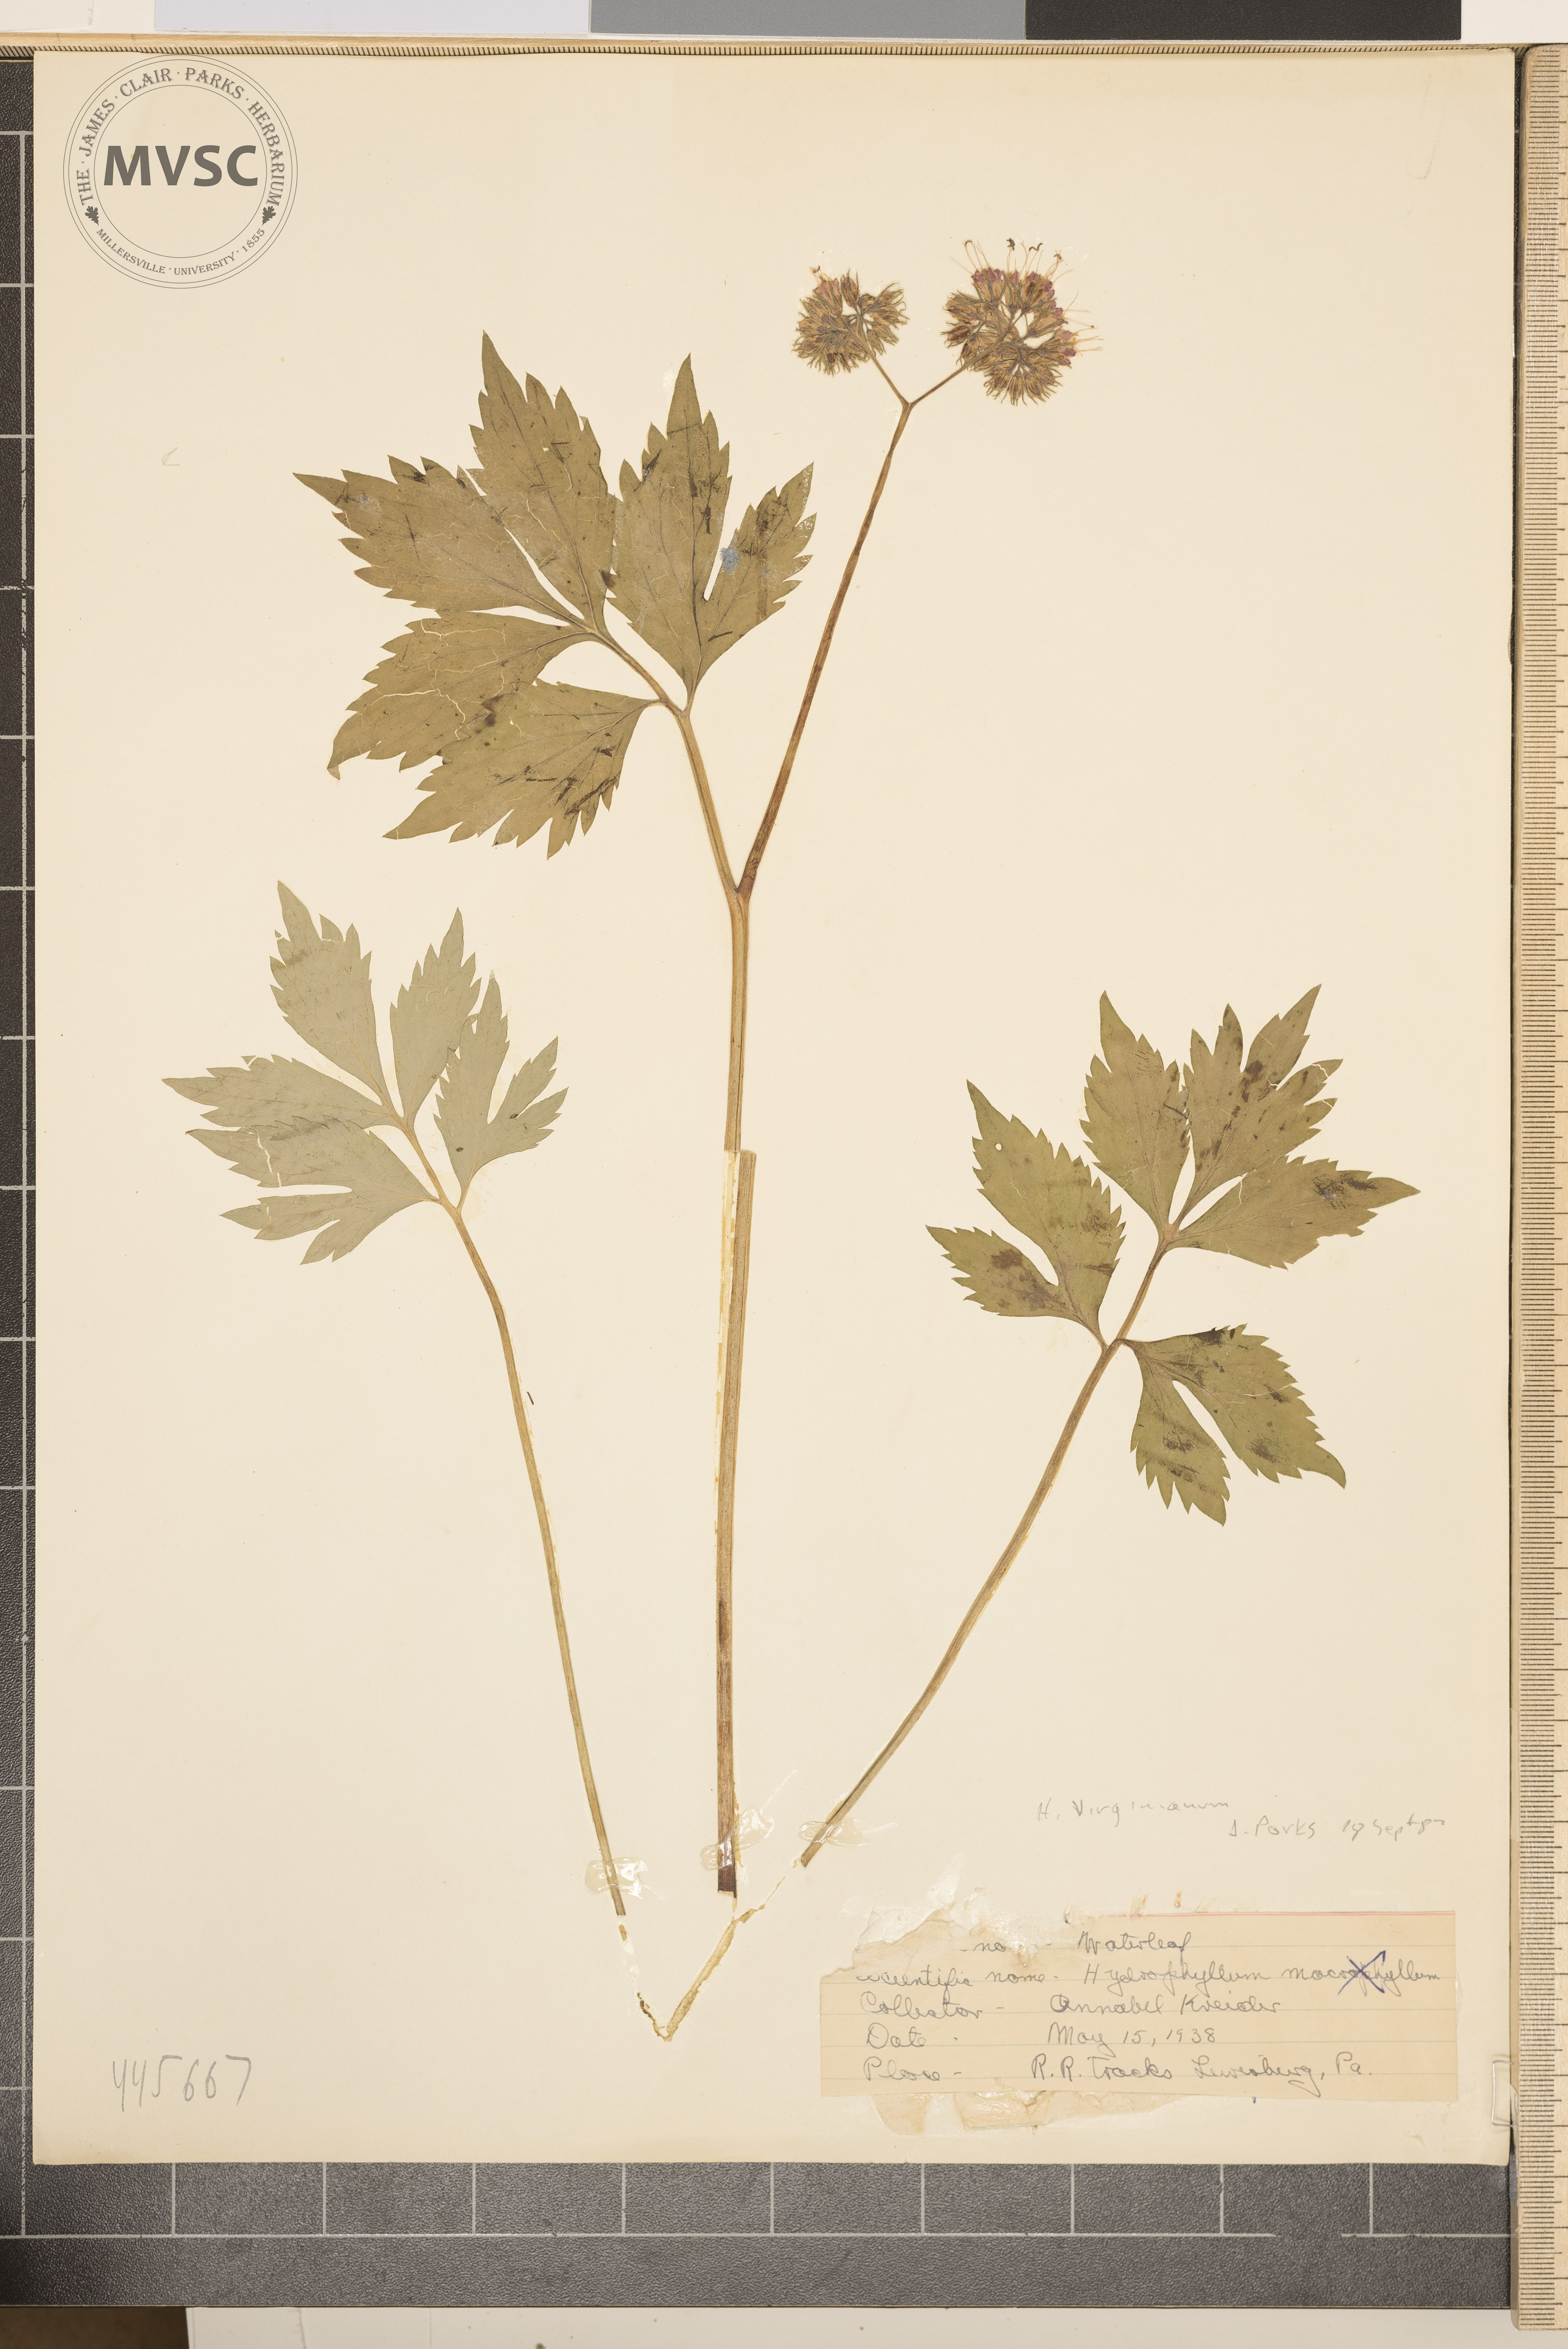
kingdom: Plantae
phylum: Tracheophyta
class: Magnoliopsida
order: Boraginales
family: Hydrophyllaceae
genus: Hydrophyllum
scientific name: Hydrophyllum virginianum
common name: Virginia waterleaf
